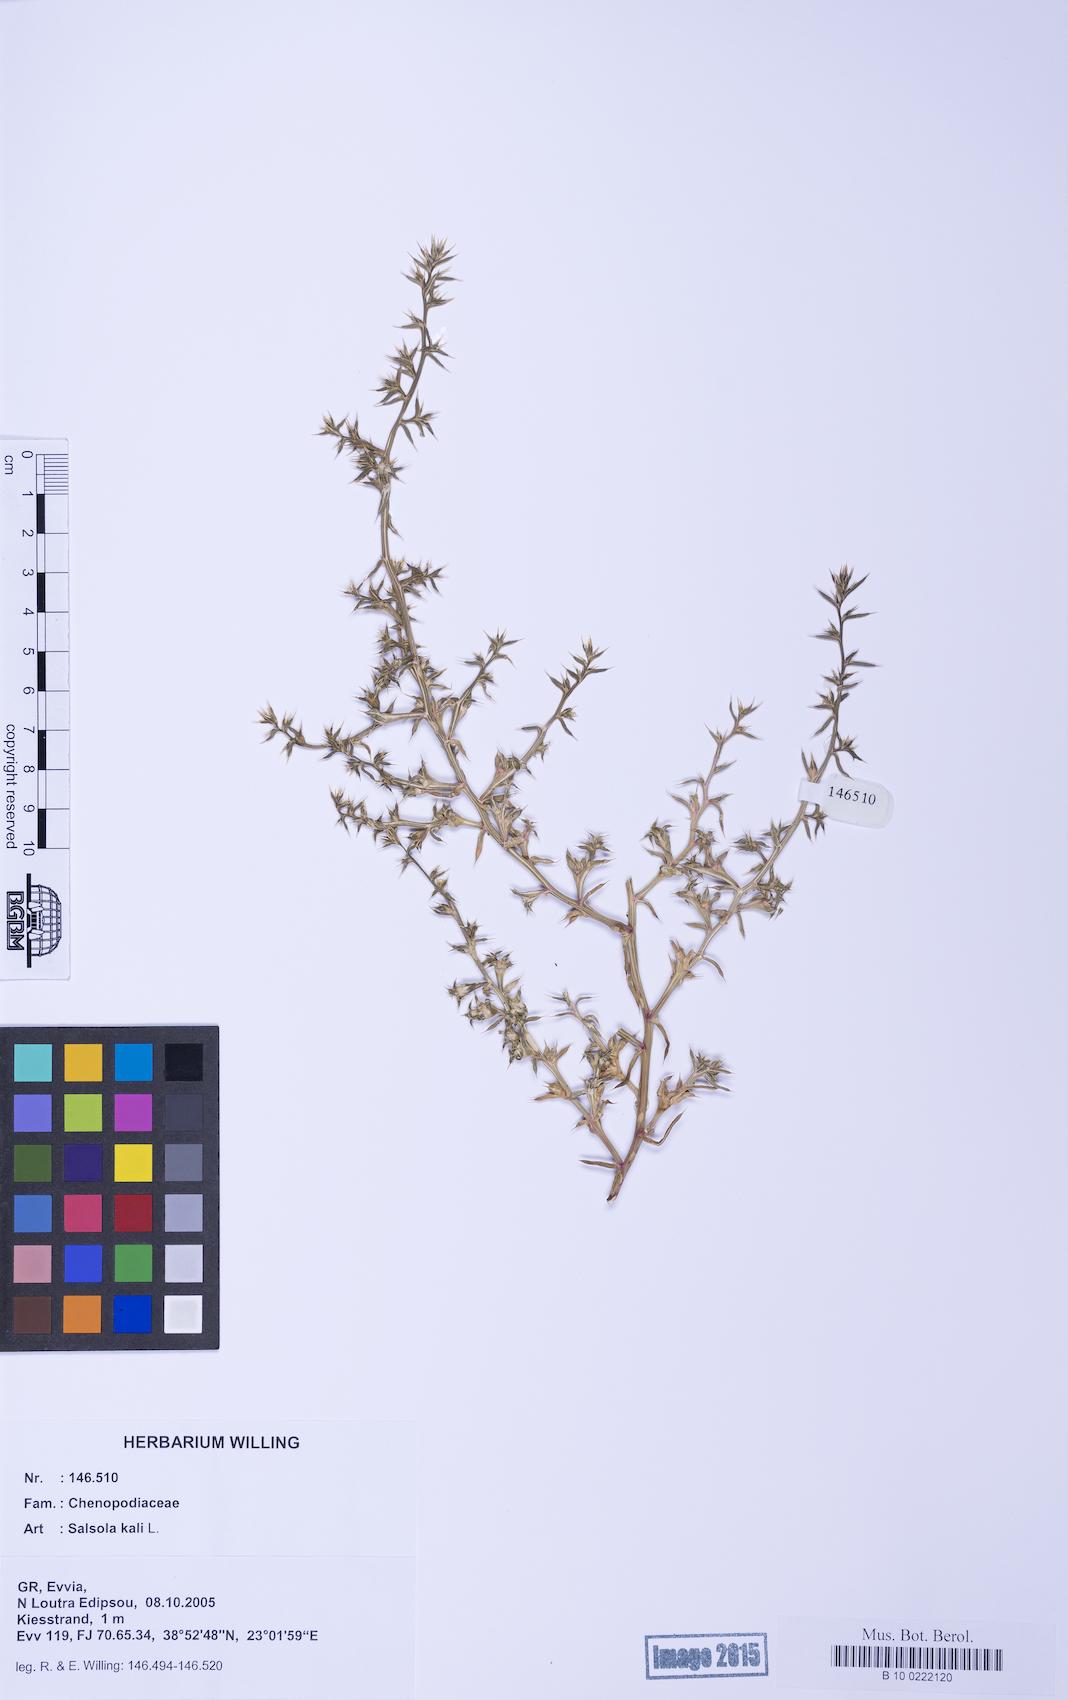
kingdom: Plantae
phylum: Tracheophyta
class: Magnoliopsida
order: Caryophyllales
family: Amaranthaceae
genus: Salsola
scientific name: Salsola kali
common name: Saltwort
